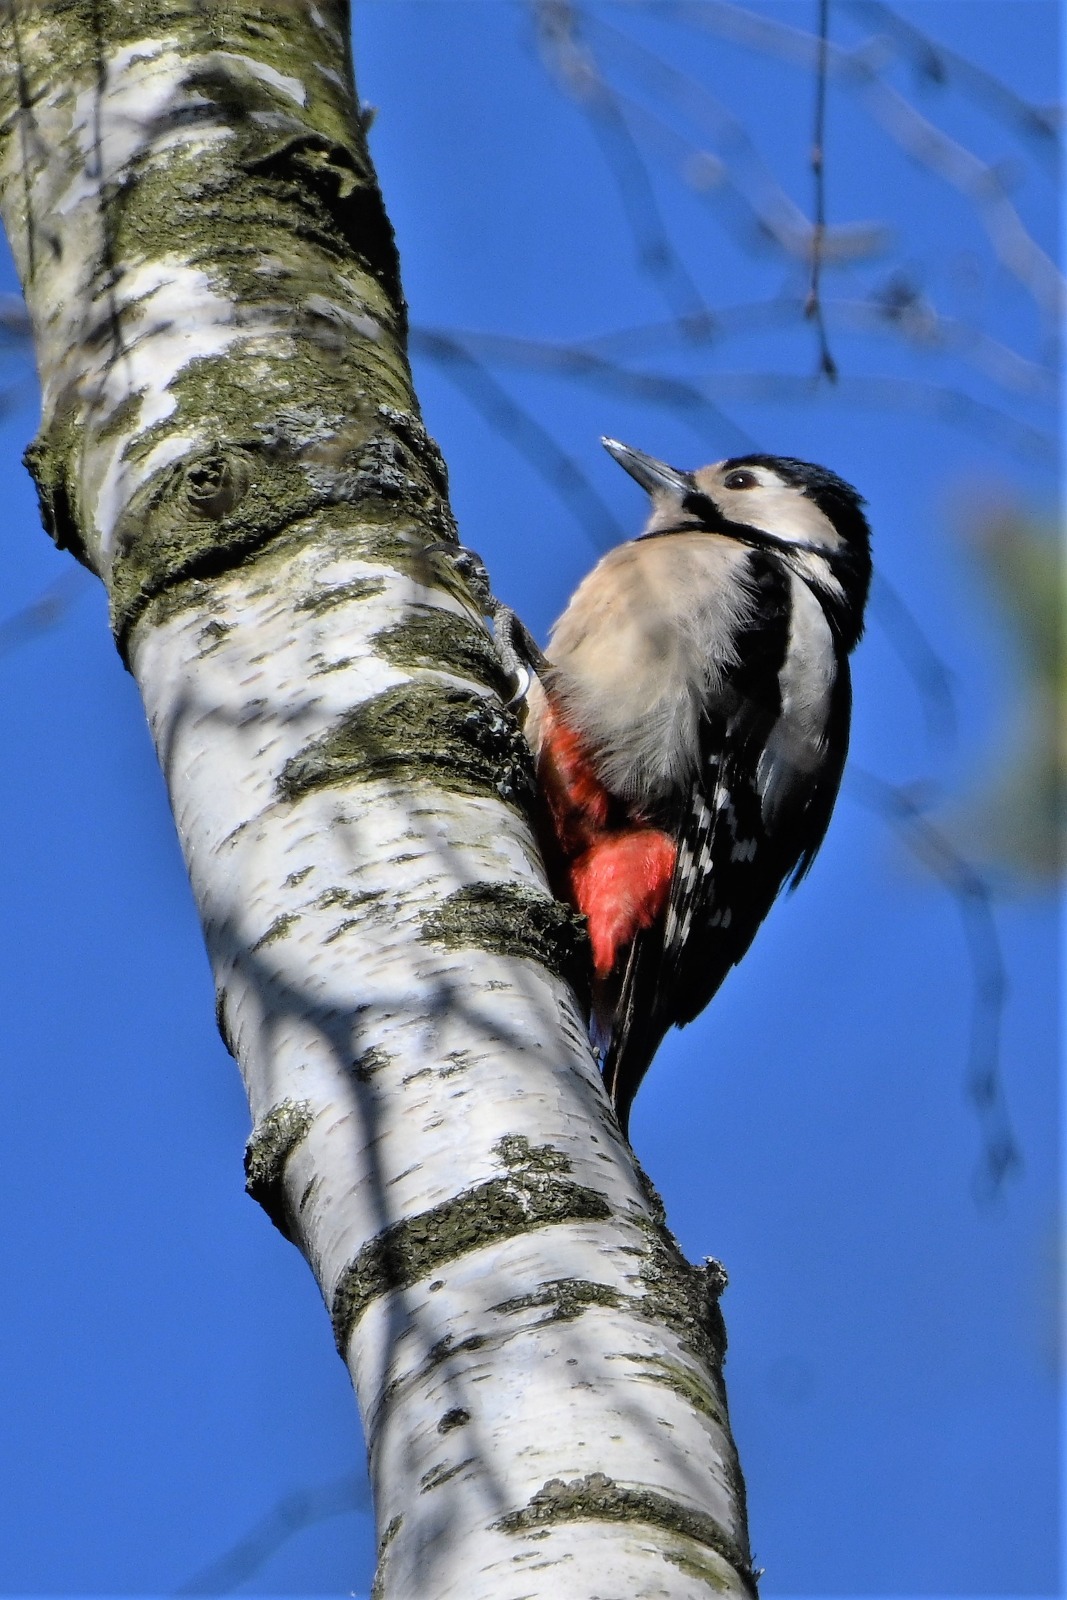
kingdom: Animalia
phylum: Chordata
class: Aves
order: Piciformes
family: Picidae
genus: Dendrocopos
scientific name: Dendrocopos major
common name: Stor flagspætte
